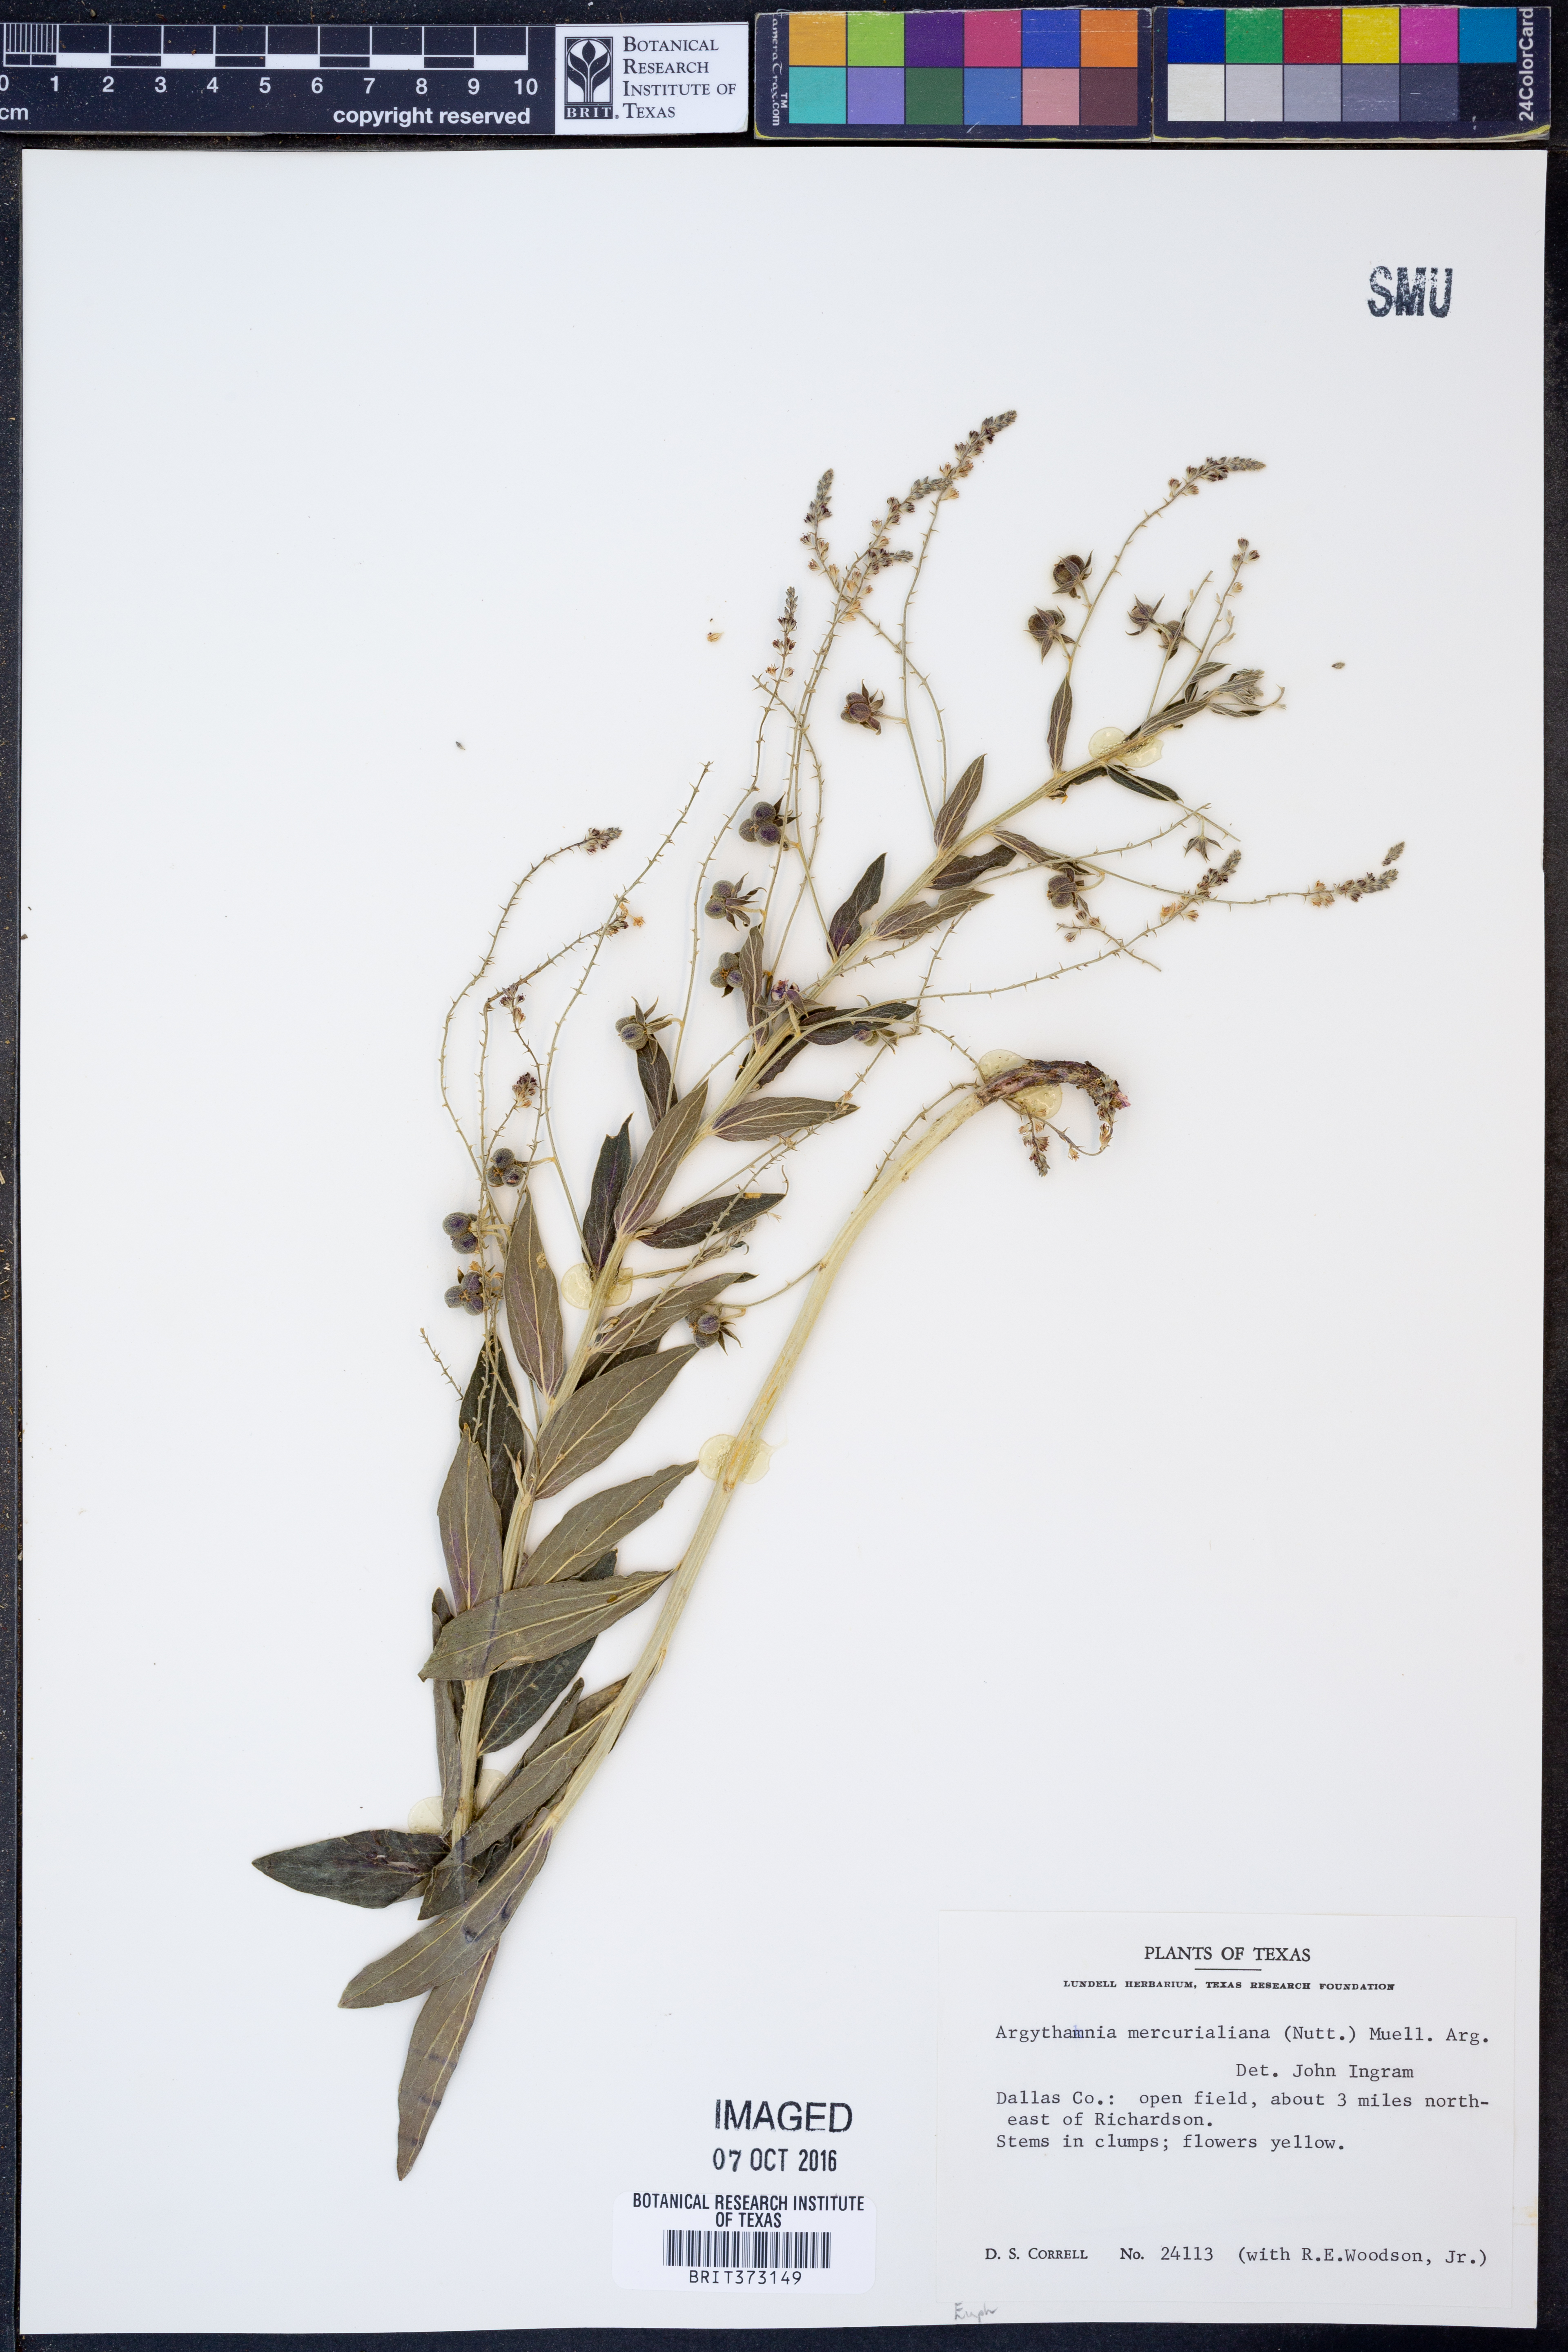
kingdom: Plantae
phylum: Tracheophyta
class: Magnoliopsida
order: Malpighiales
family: Euphorbiaceae
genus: Ditaxis
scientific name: Ditaxis mercurialina
